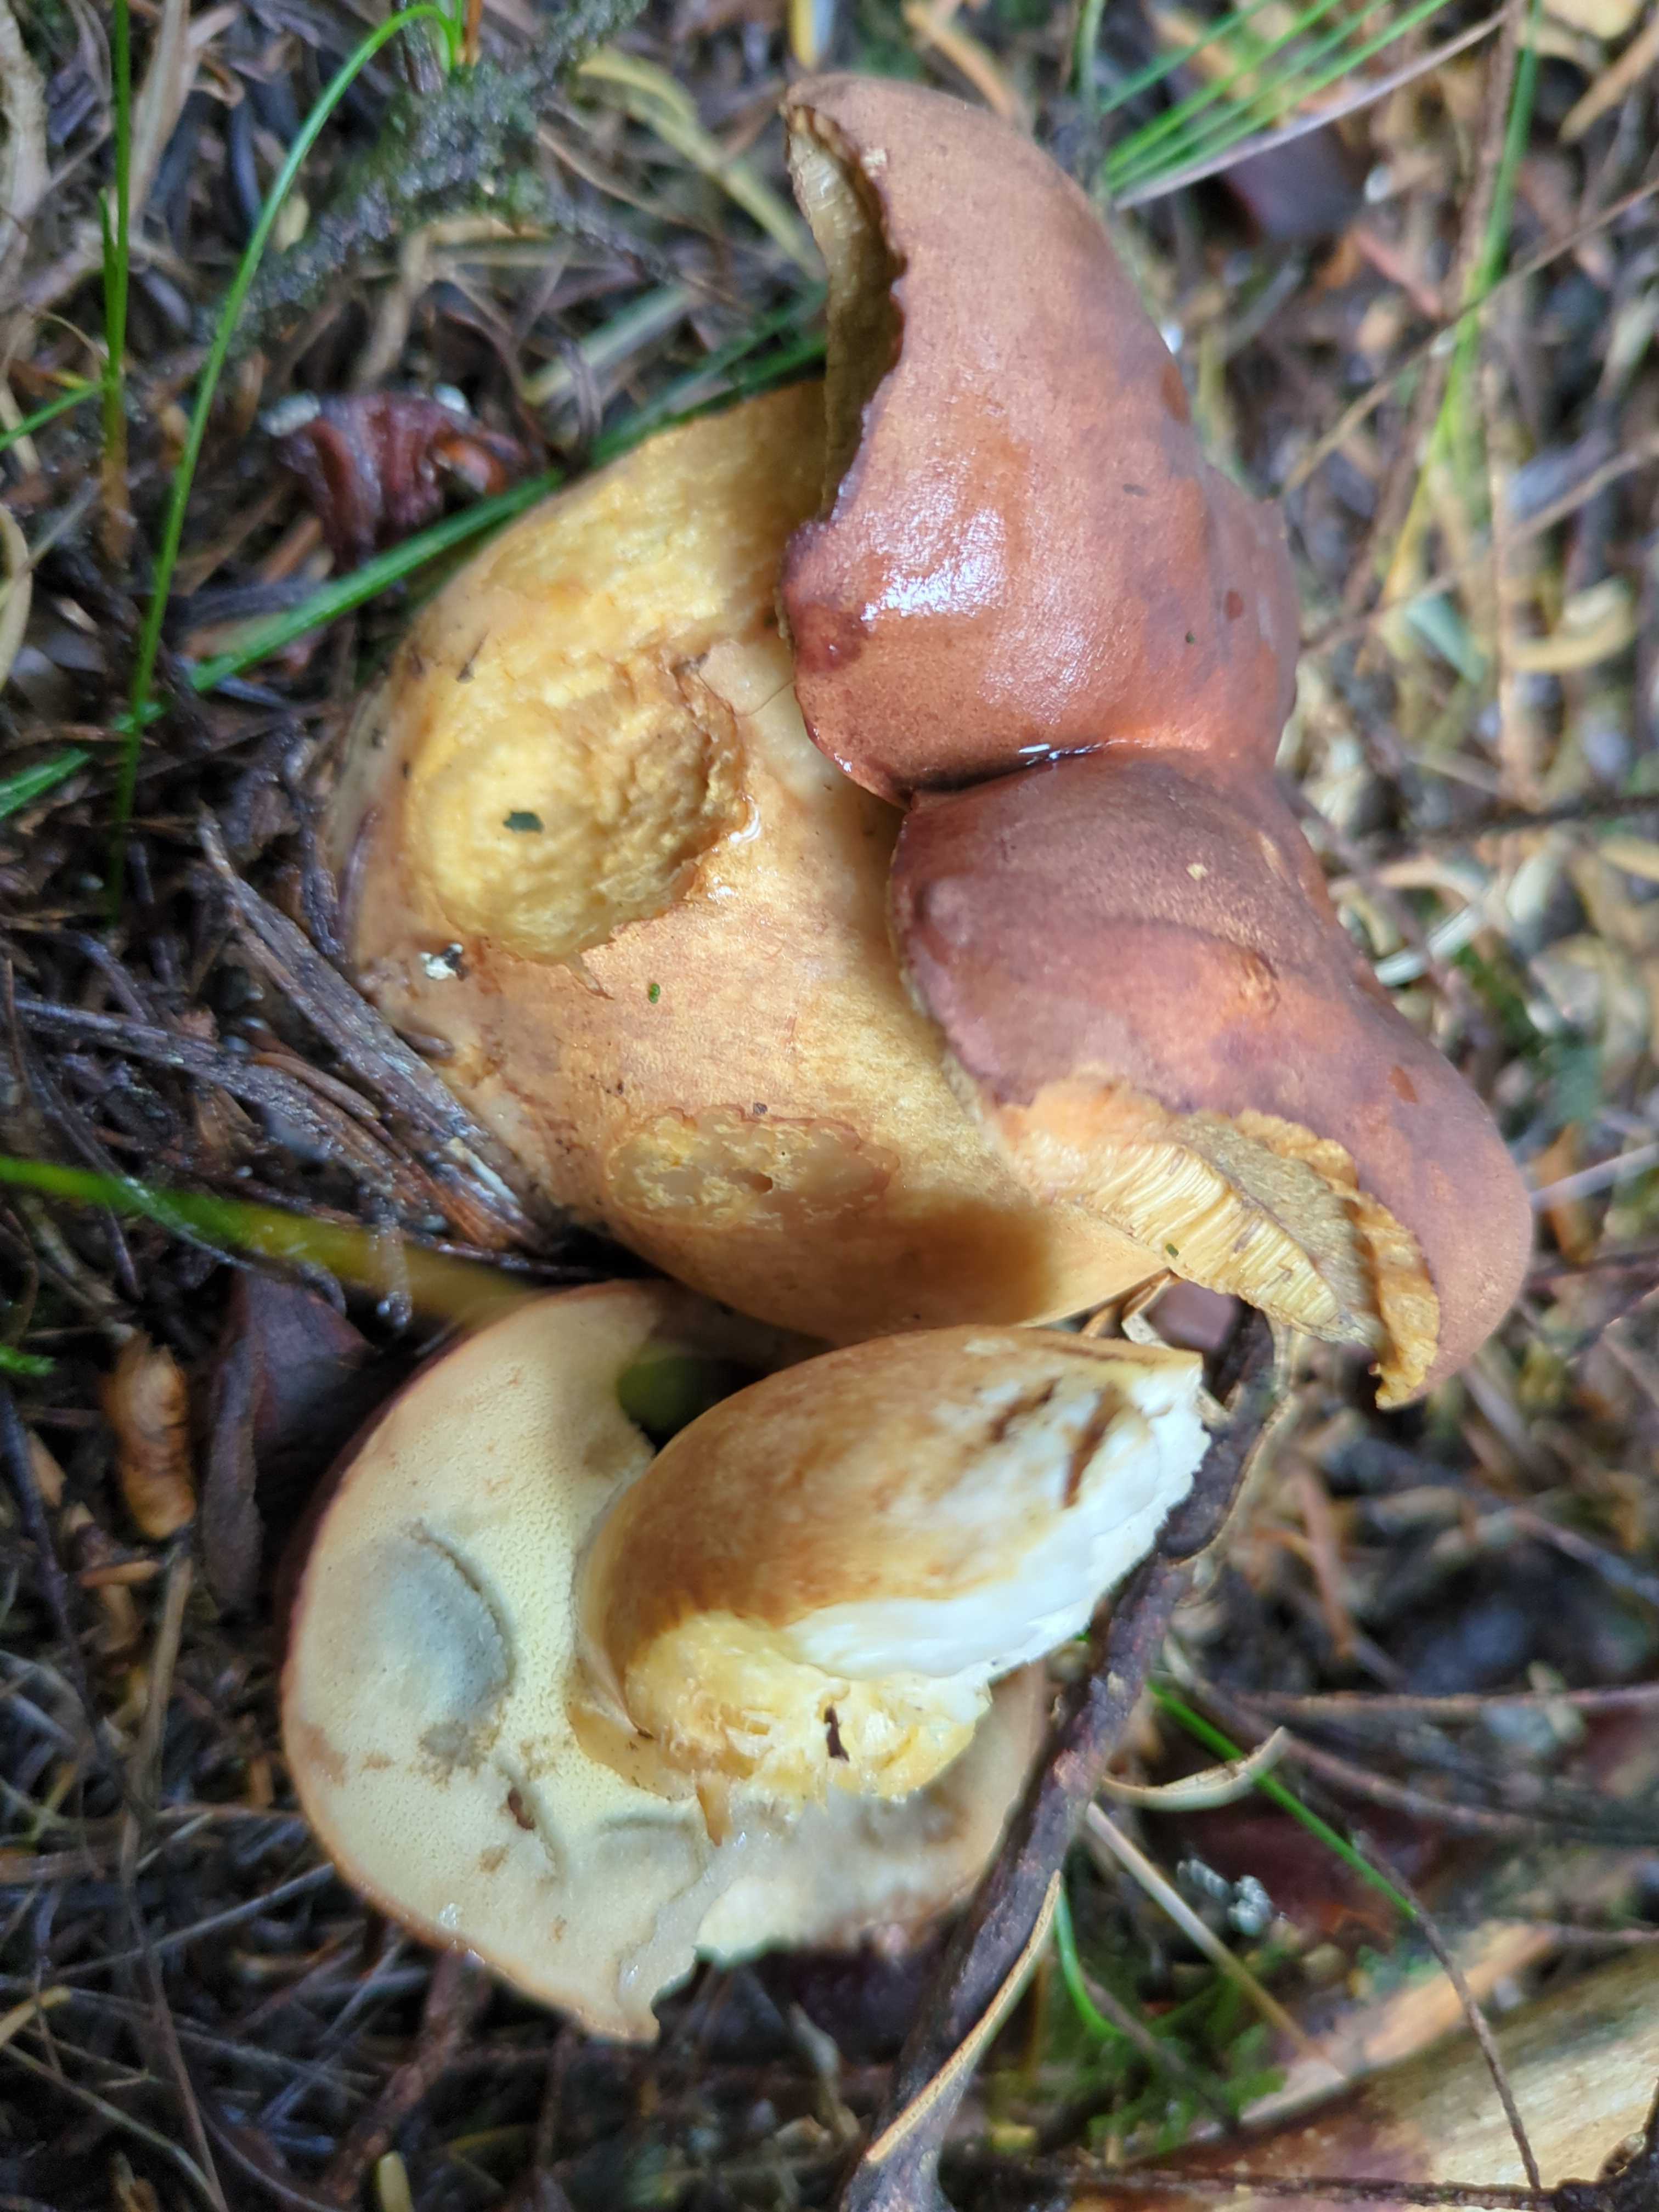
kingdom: Fungi
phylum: Basidiomycota
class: Agaricomycetes
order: Boletales
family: Boletaceae
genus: Imleria
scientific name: Imleria badia
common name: brunstokket rørhat
